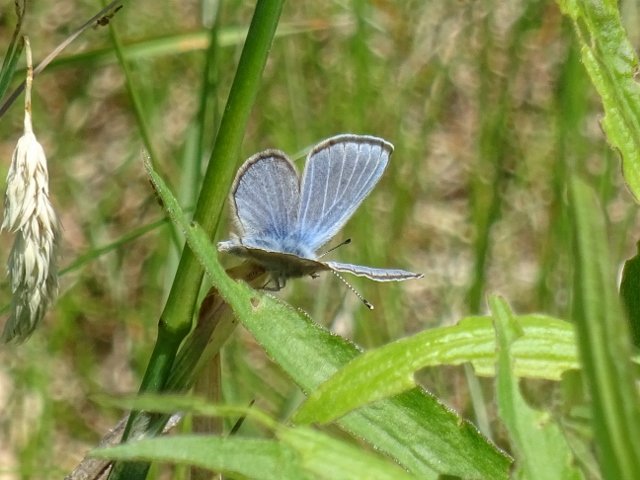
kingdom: Animalia
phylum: Arthropoda
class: Insecta
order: Lepidoptera
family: Lycaenidae
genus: Glaucopsyche
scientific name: Glaucopsyche lygdamus
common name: Silvery Blue
